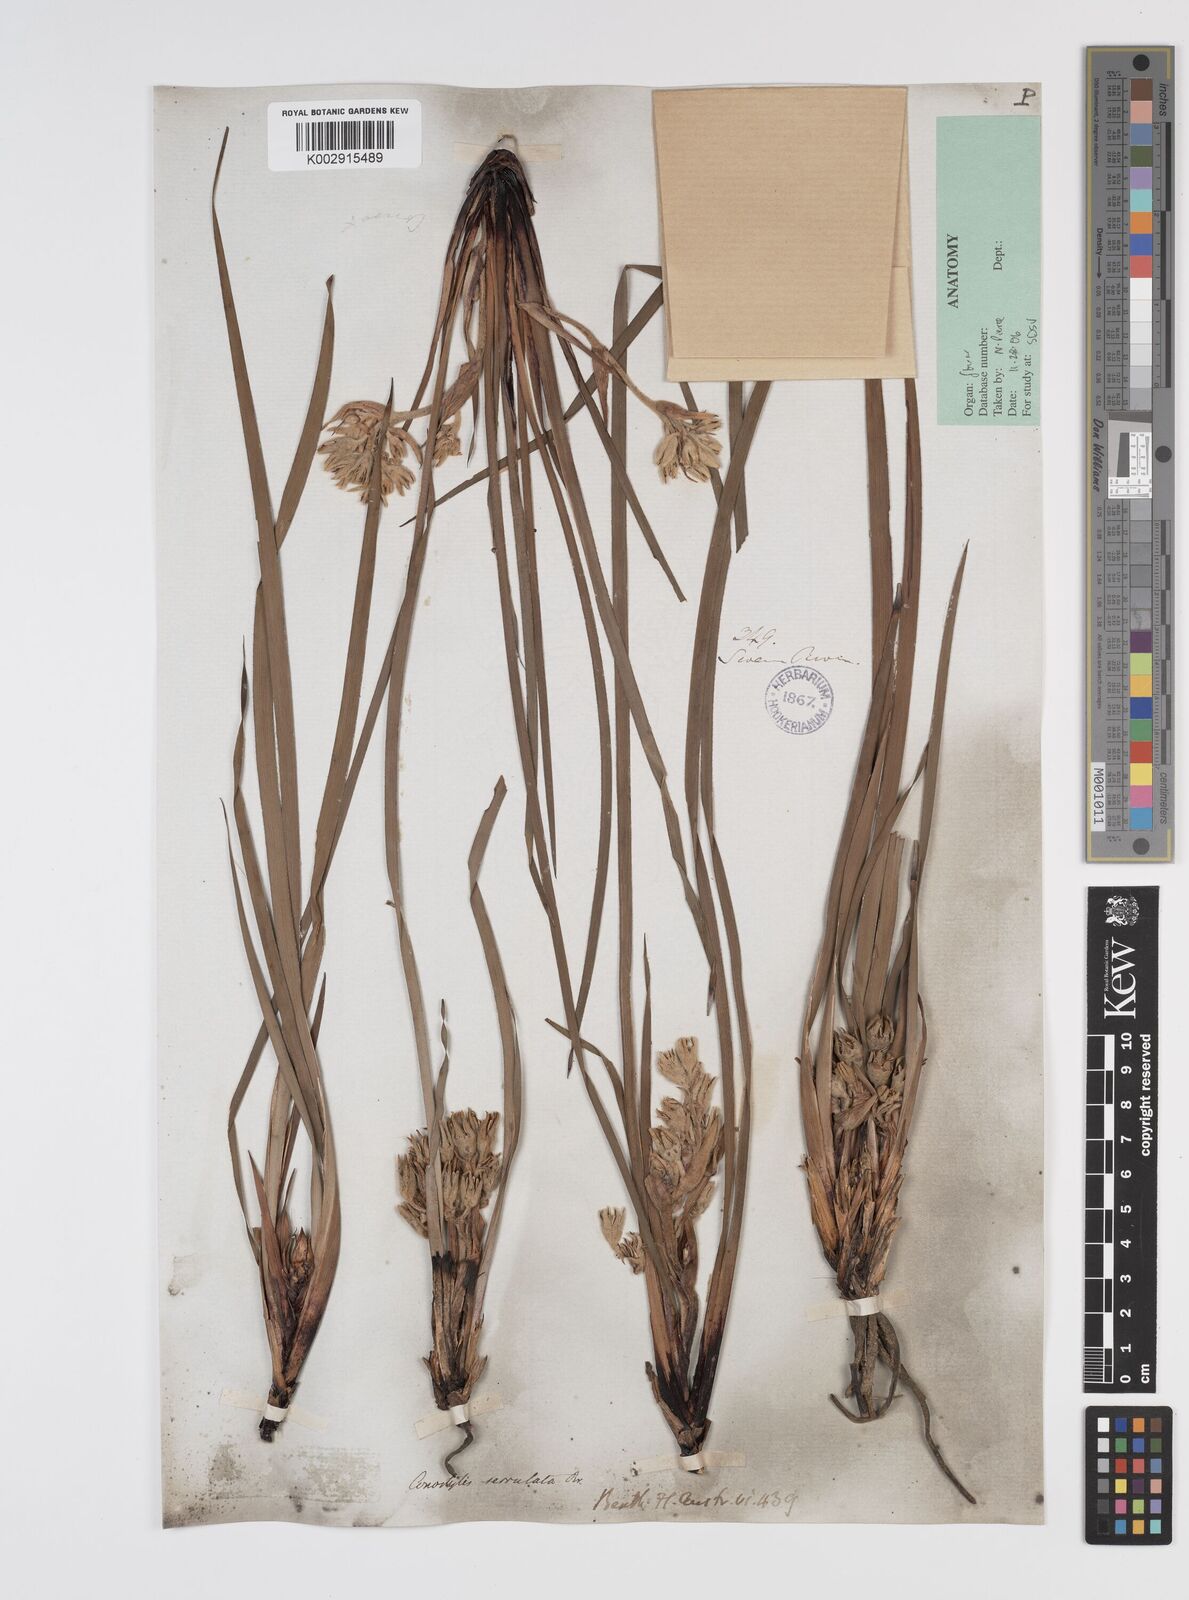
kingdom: Plantae
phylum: Tracheophyta
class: Liliopsida
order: Commelinales
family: Haemodoraceae
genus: Conostylis
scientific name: Conostylis serrulata
